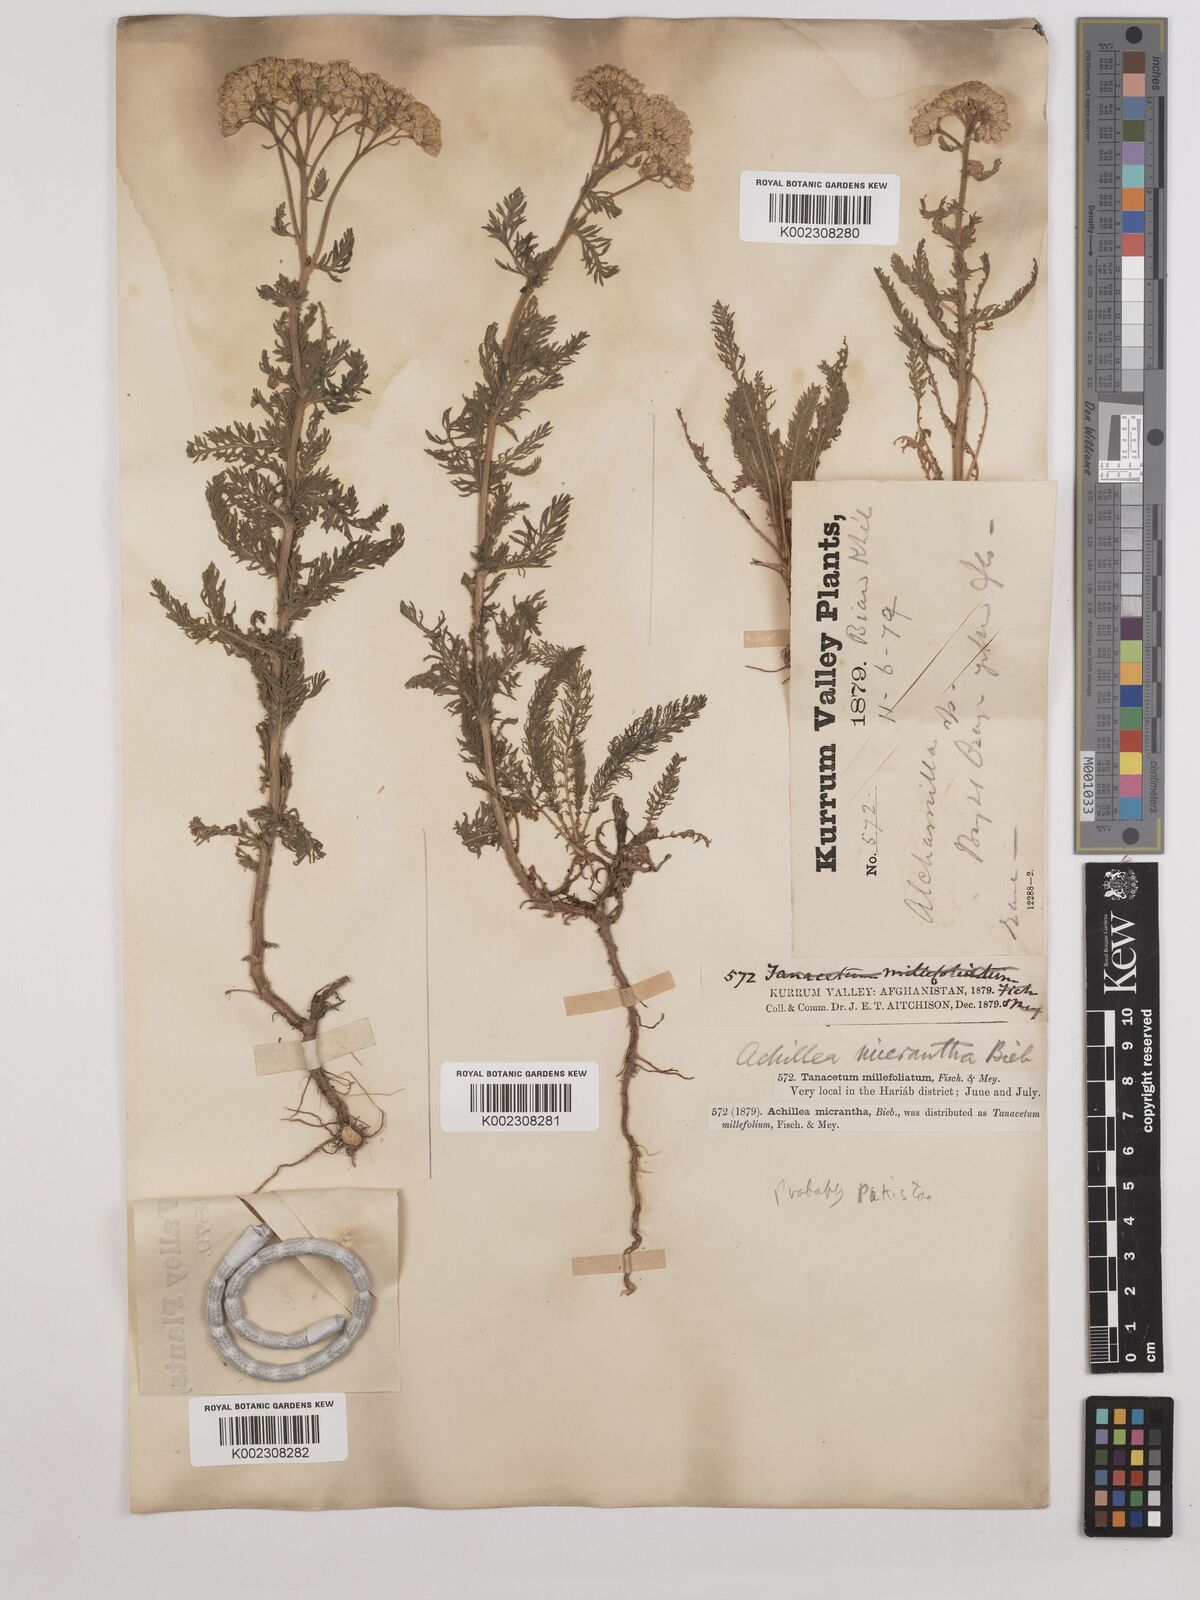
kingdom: Plantae
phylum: Tracheophyta
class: Magnoliopsida
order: Asterales
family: Asteraceae
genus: Achillea
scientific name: Achillea arabica
